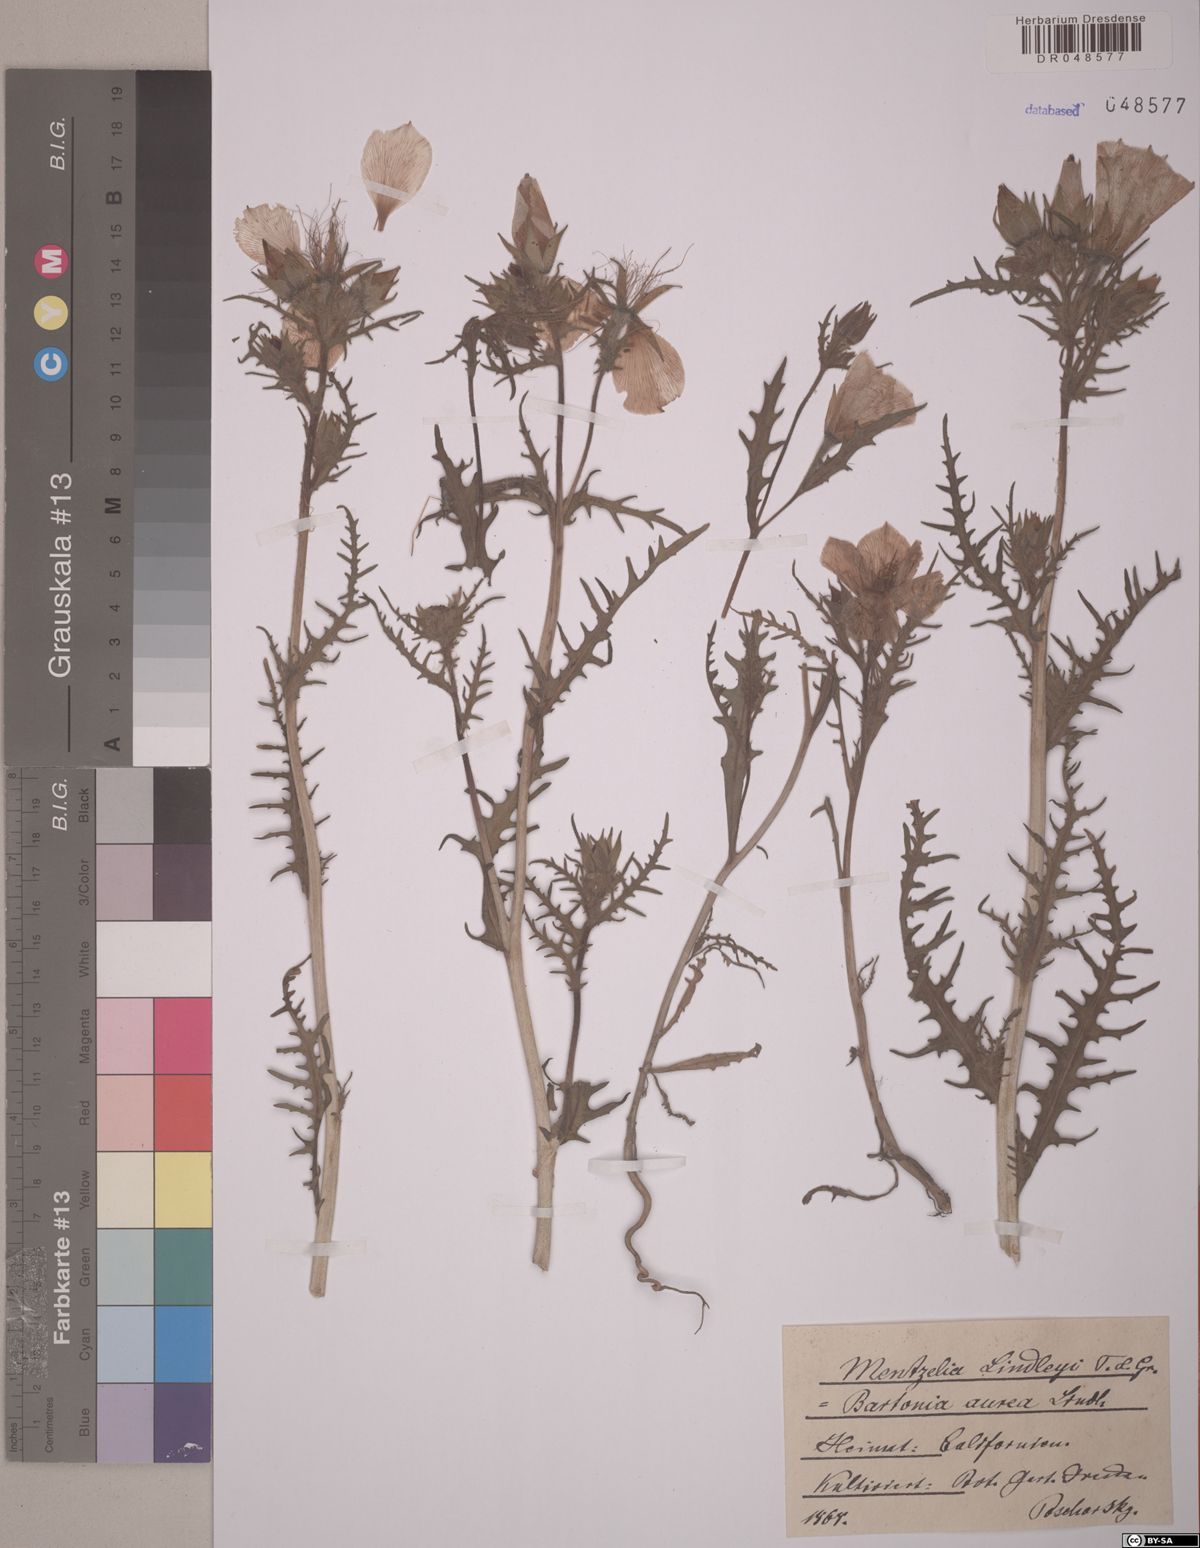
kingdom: Plantae
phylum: Tracheophyta
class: Magnoliopsida
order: Cornales
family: Loasaceae
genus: Mentzelia
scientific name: Mentzelia lindleyi
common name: Golden bartonia
